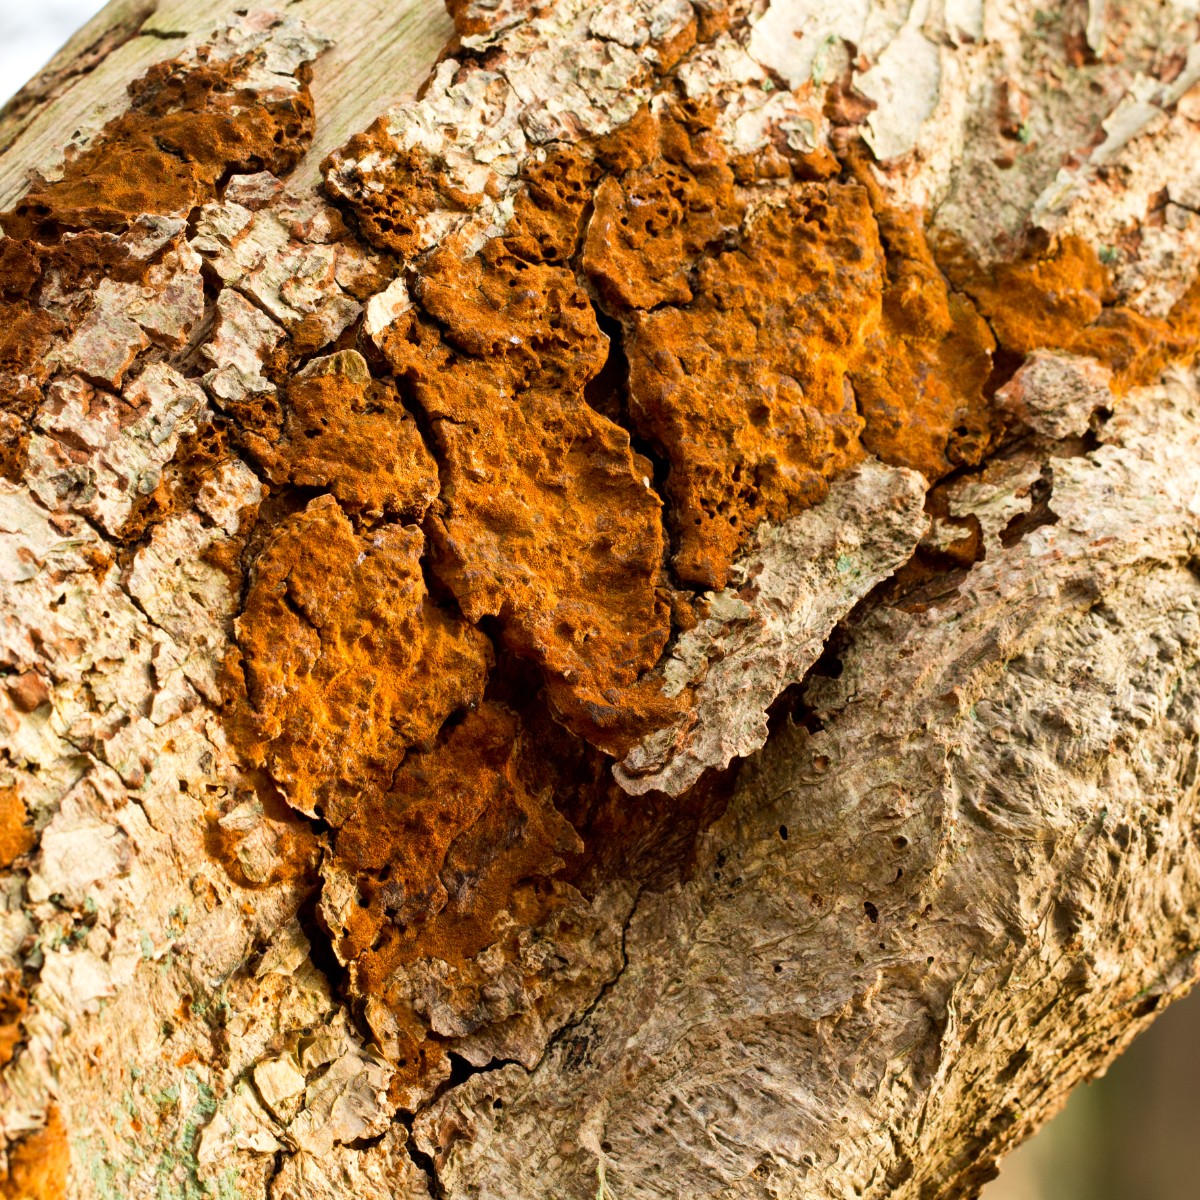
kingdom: Fungi
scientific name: Fungi
